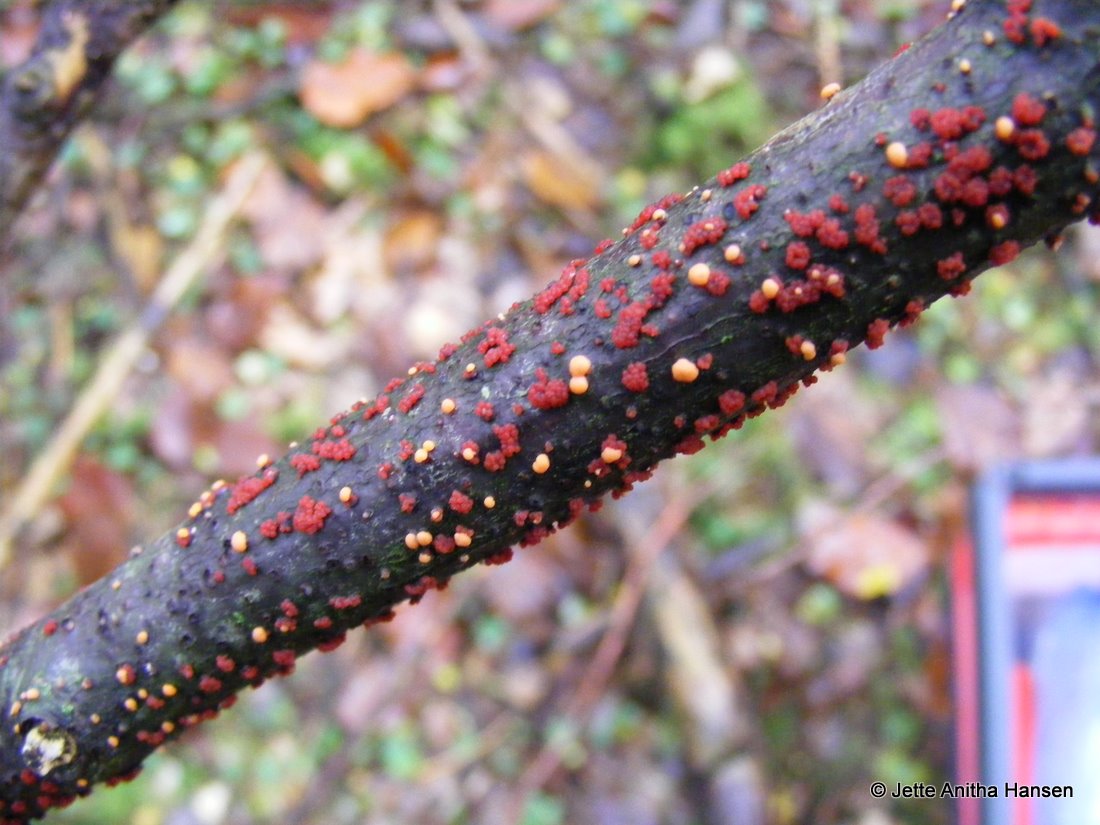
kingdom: Fungi
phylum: Ascomycota
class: Sordariomycetes
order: Hypocreales
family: Nectriaceae
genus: Nectria
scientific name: Nectria cinnabarina
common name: almindelig cinnobersvamp
